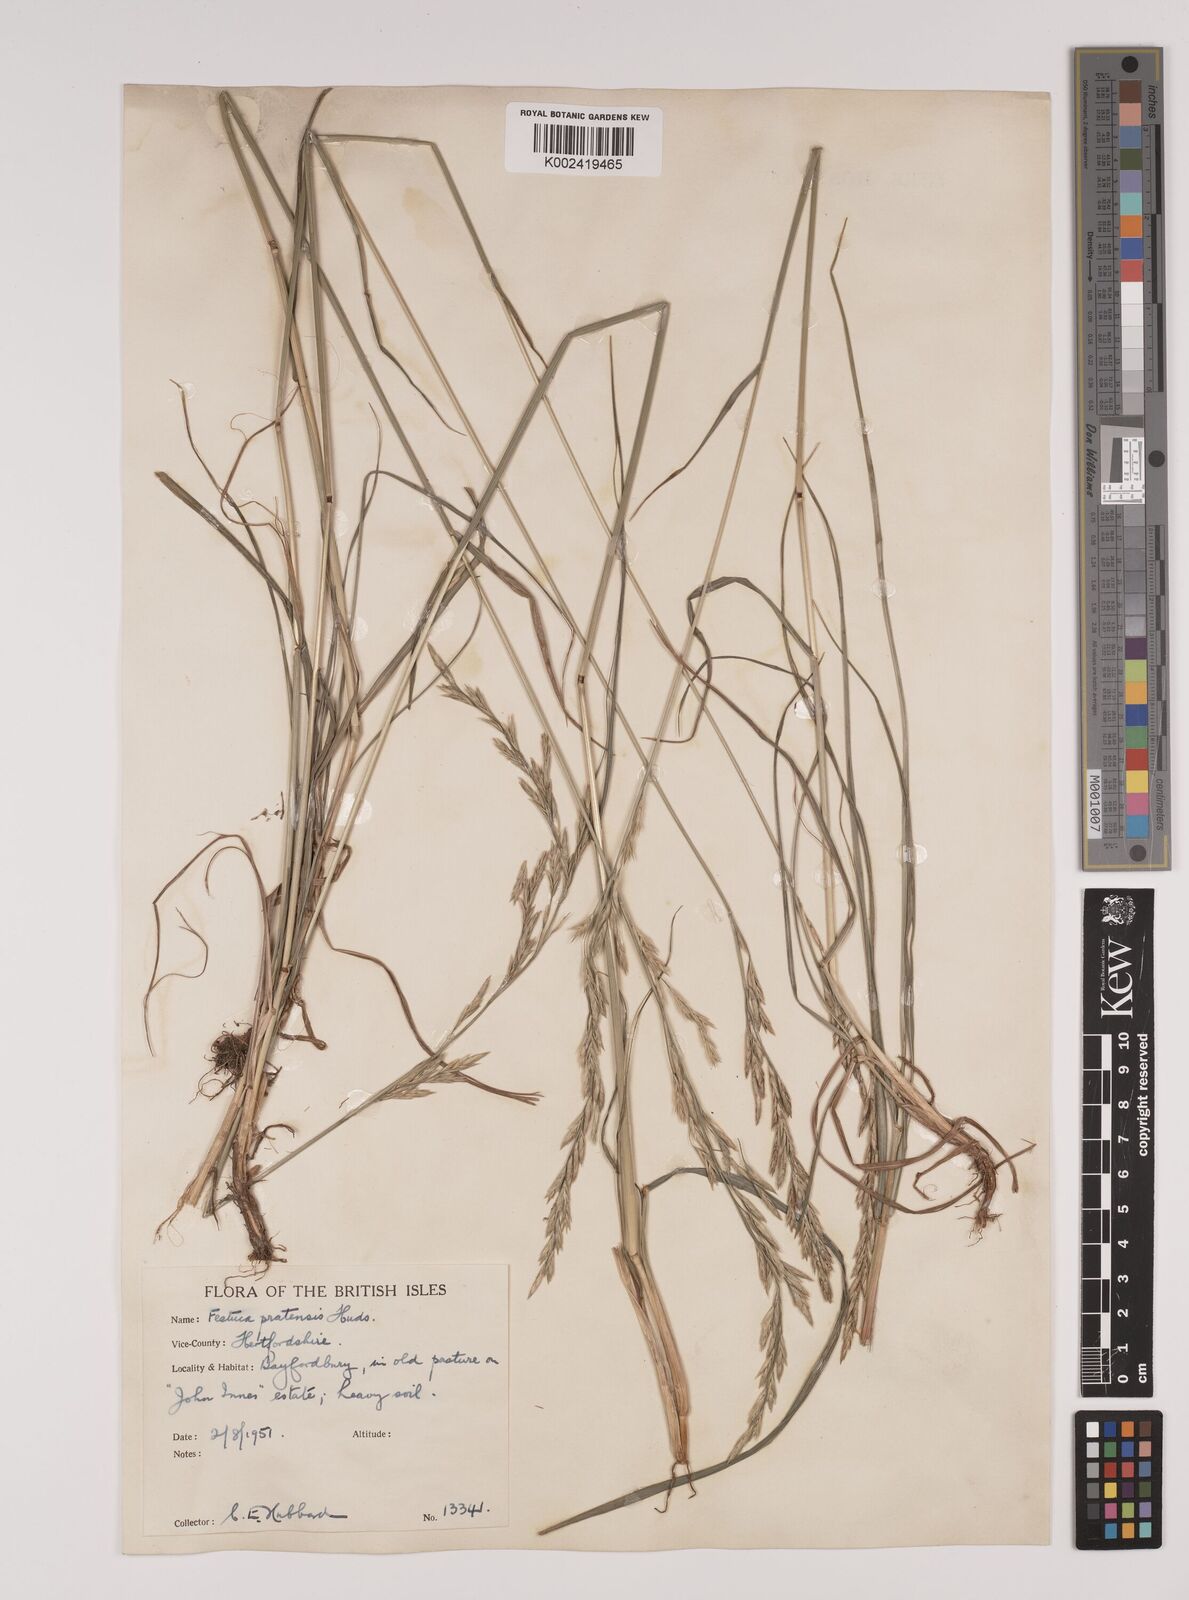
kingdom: Plantae
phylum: Tracheophyta
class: Liliopsida
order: Poales
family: Poaceae
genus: Lolium
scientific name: Lolium pratense
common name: Dover grass
